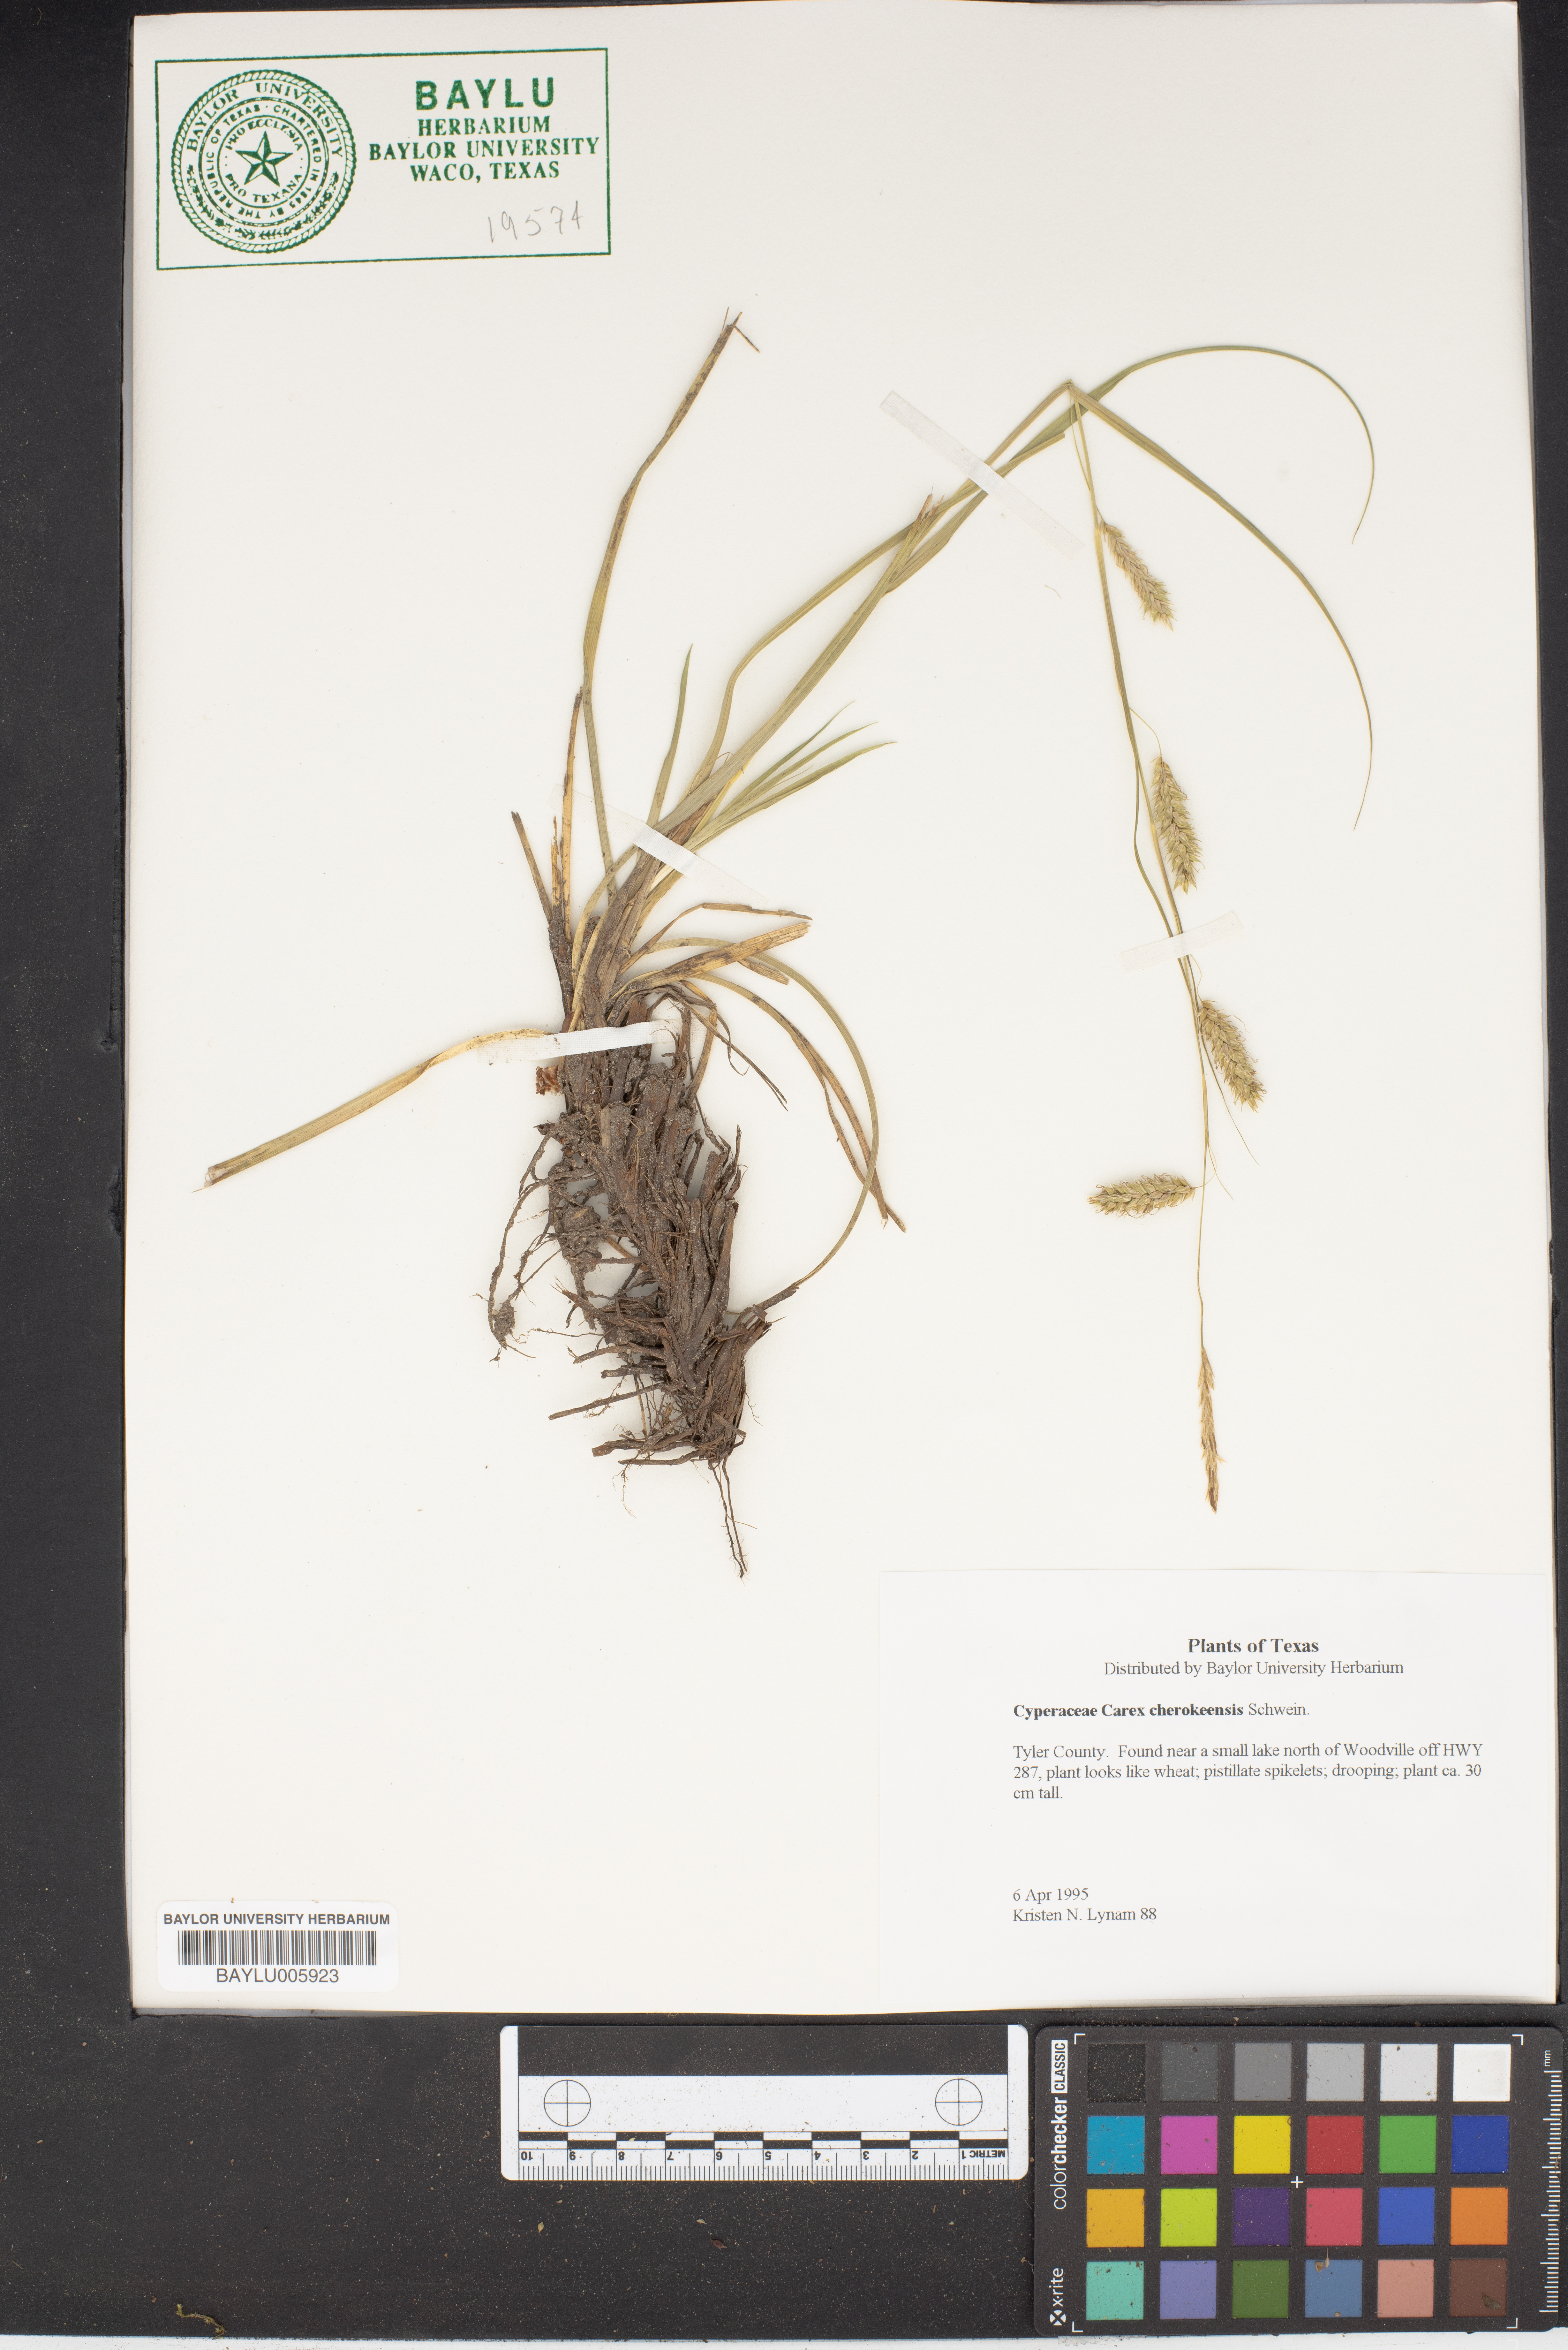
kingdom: Plantae
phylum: Tracheophyta
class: Liliopsida
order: Poales
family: Cyperaceae
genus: Carex
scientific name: Carex cherokeensis
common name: Cherokee sedge
